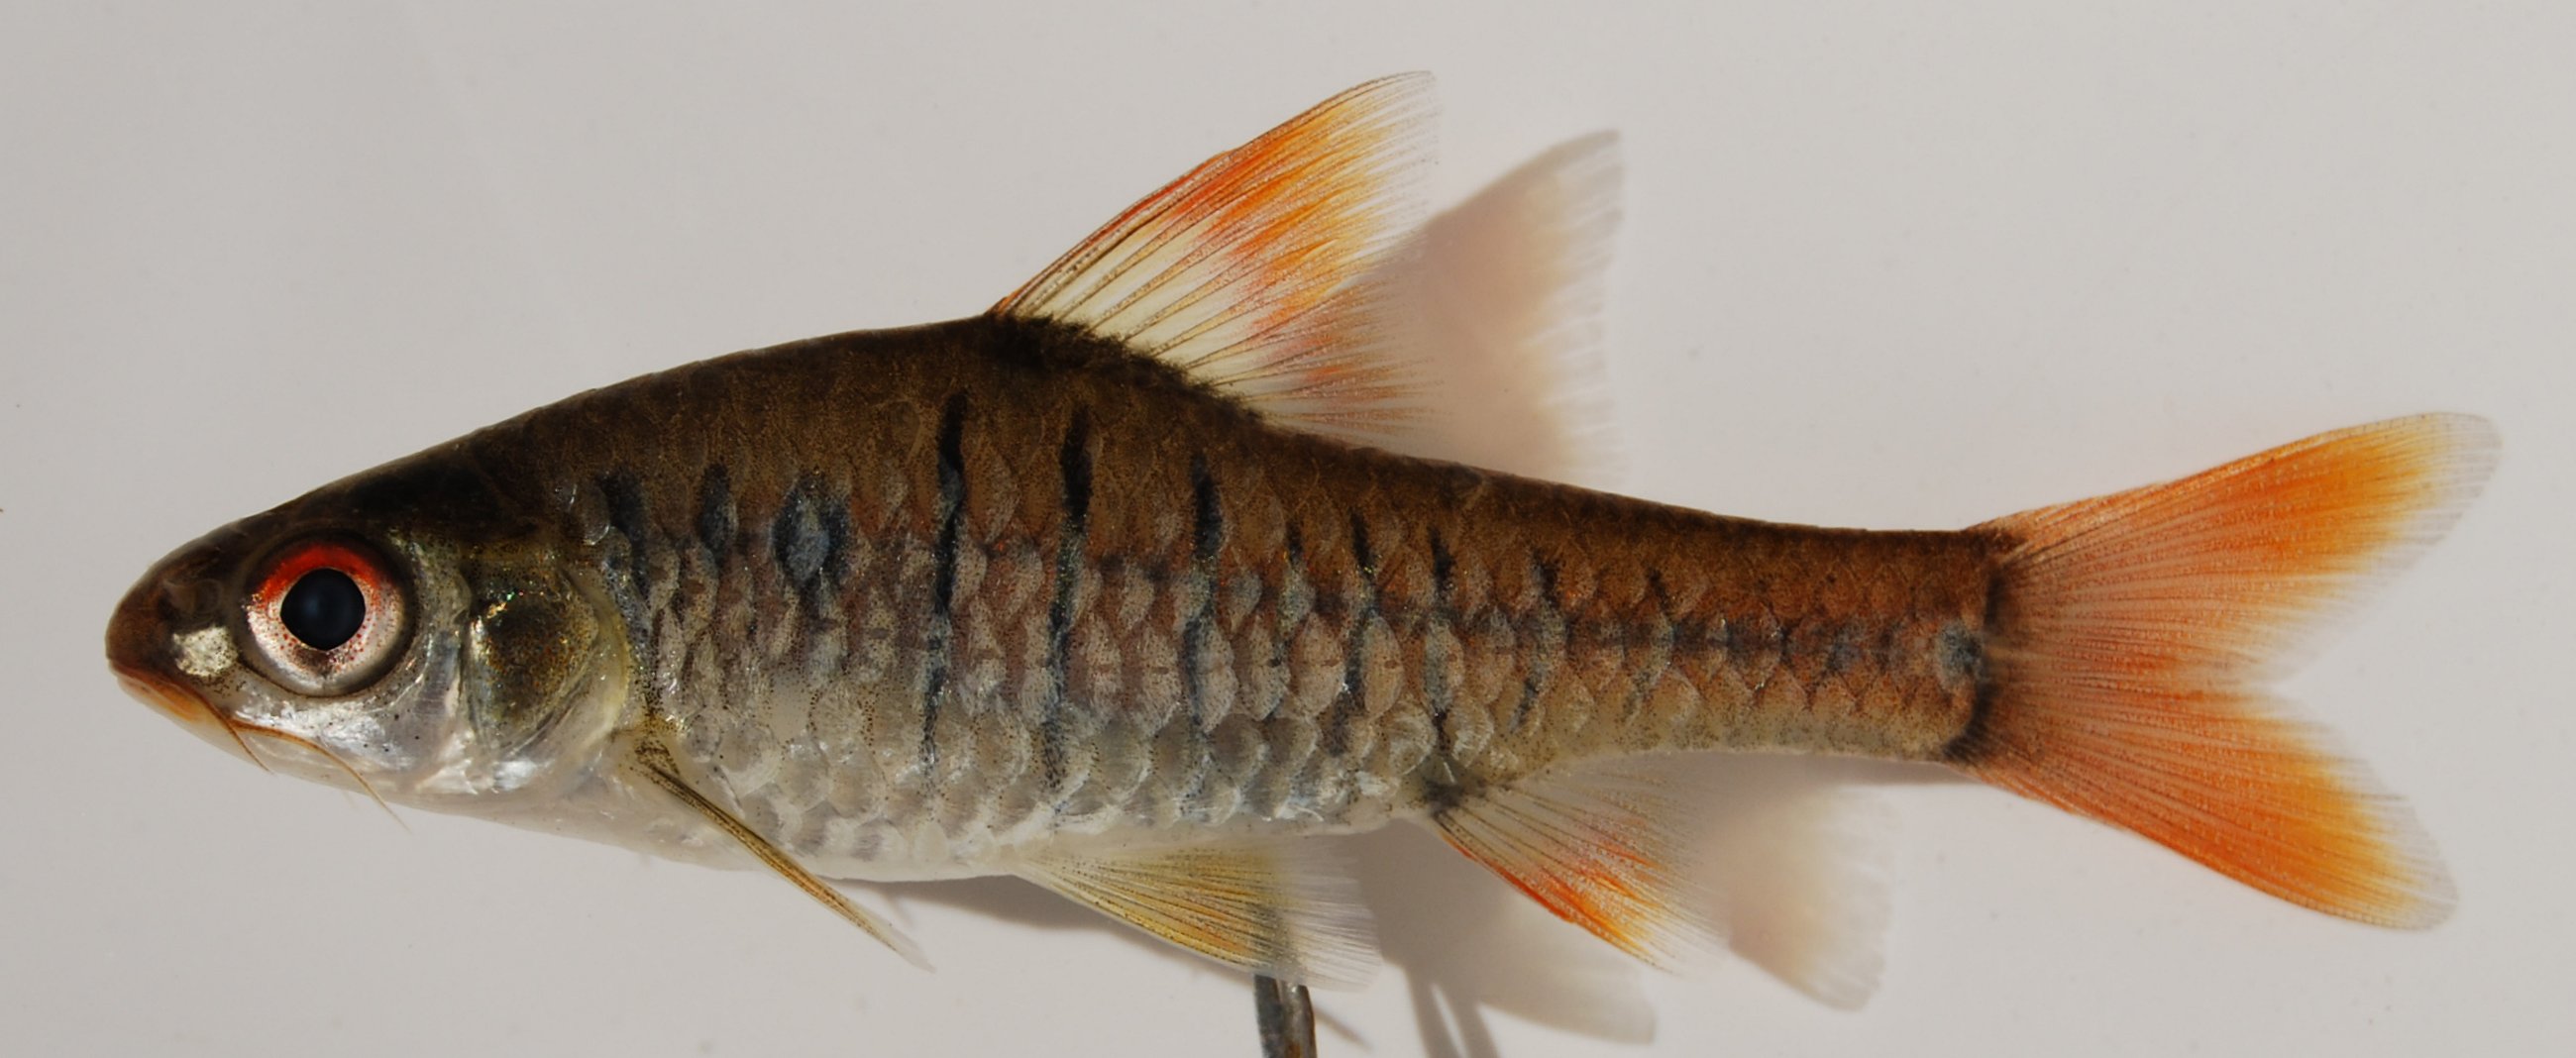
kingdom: Animalia
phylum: Chordata
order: Cypriniformes
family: Cyprinidae
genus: Enteromius
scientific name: Enteromius fasciolatus
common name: Red barb
